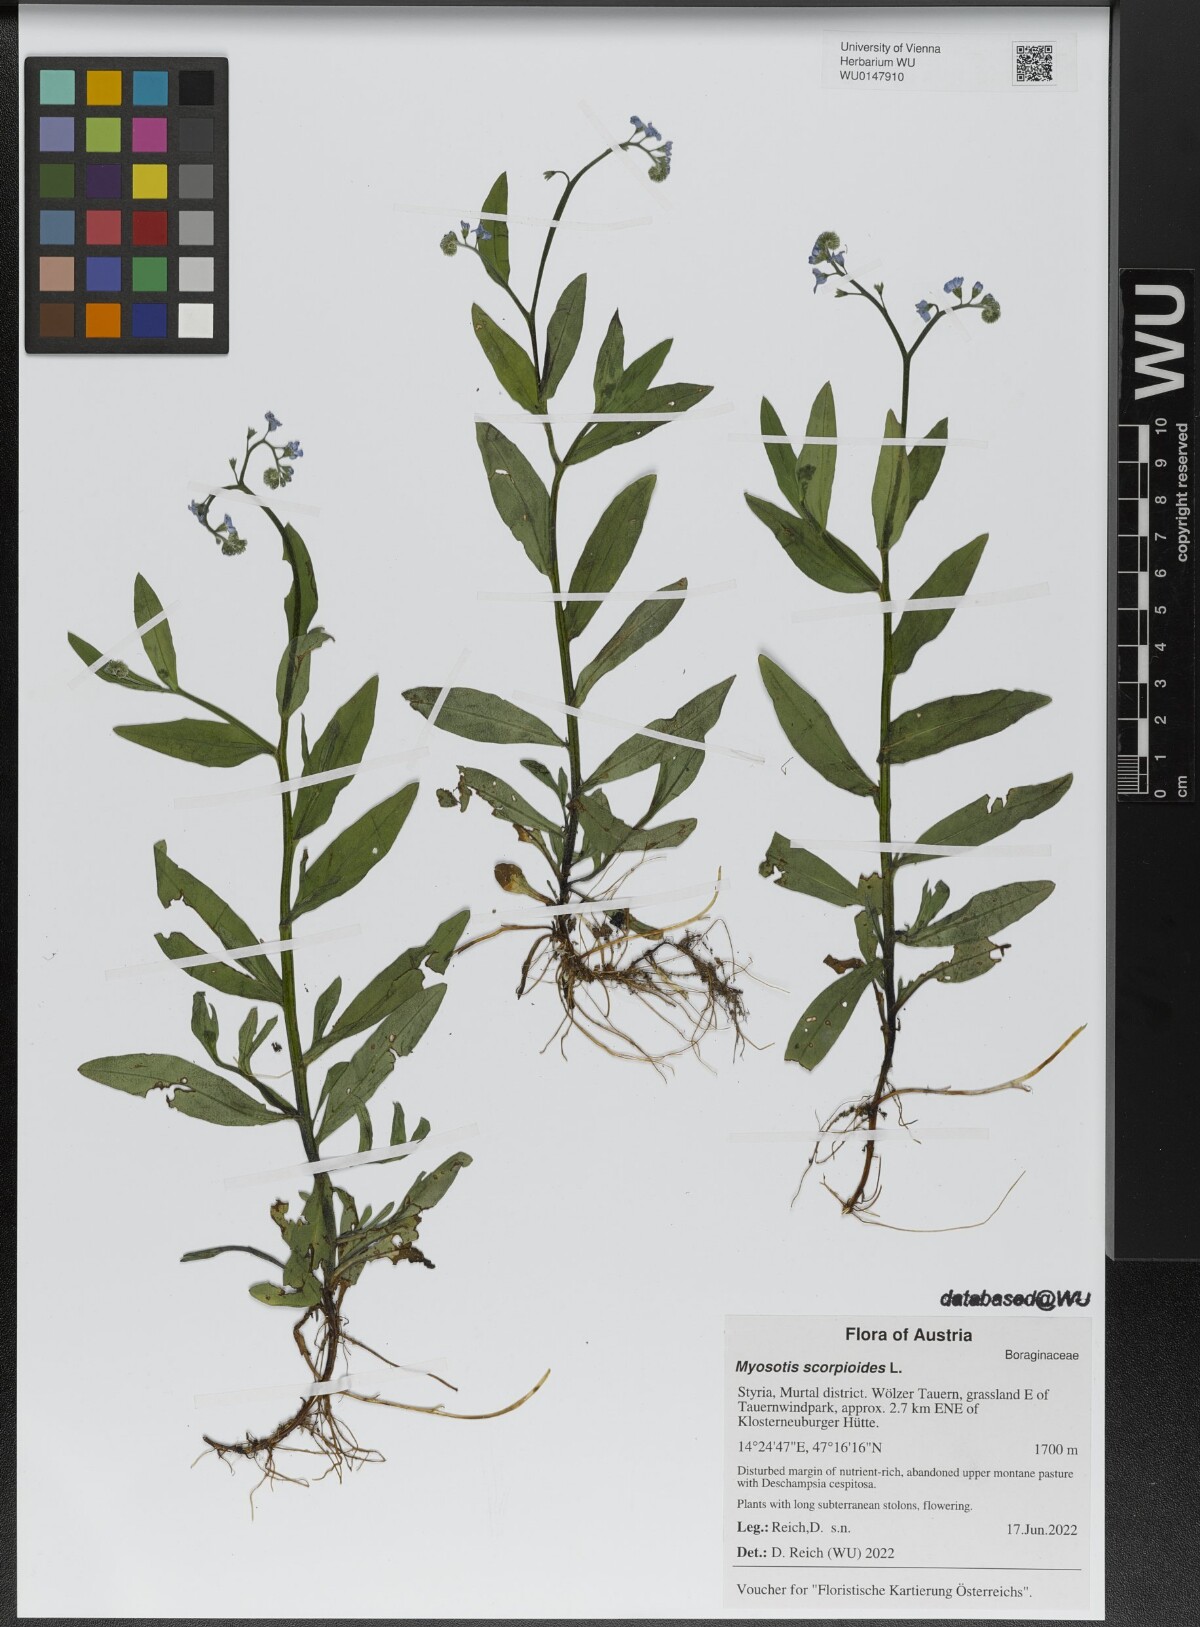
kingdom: Plantae
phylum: Tracheophyta
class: Magnoliopsida
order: Boraginales
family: Boraginaceae
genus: Myosotis
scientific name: Myosotis scorpioides
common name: Water forget-me-not
